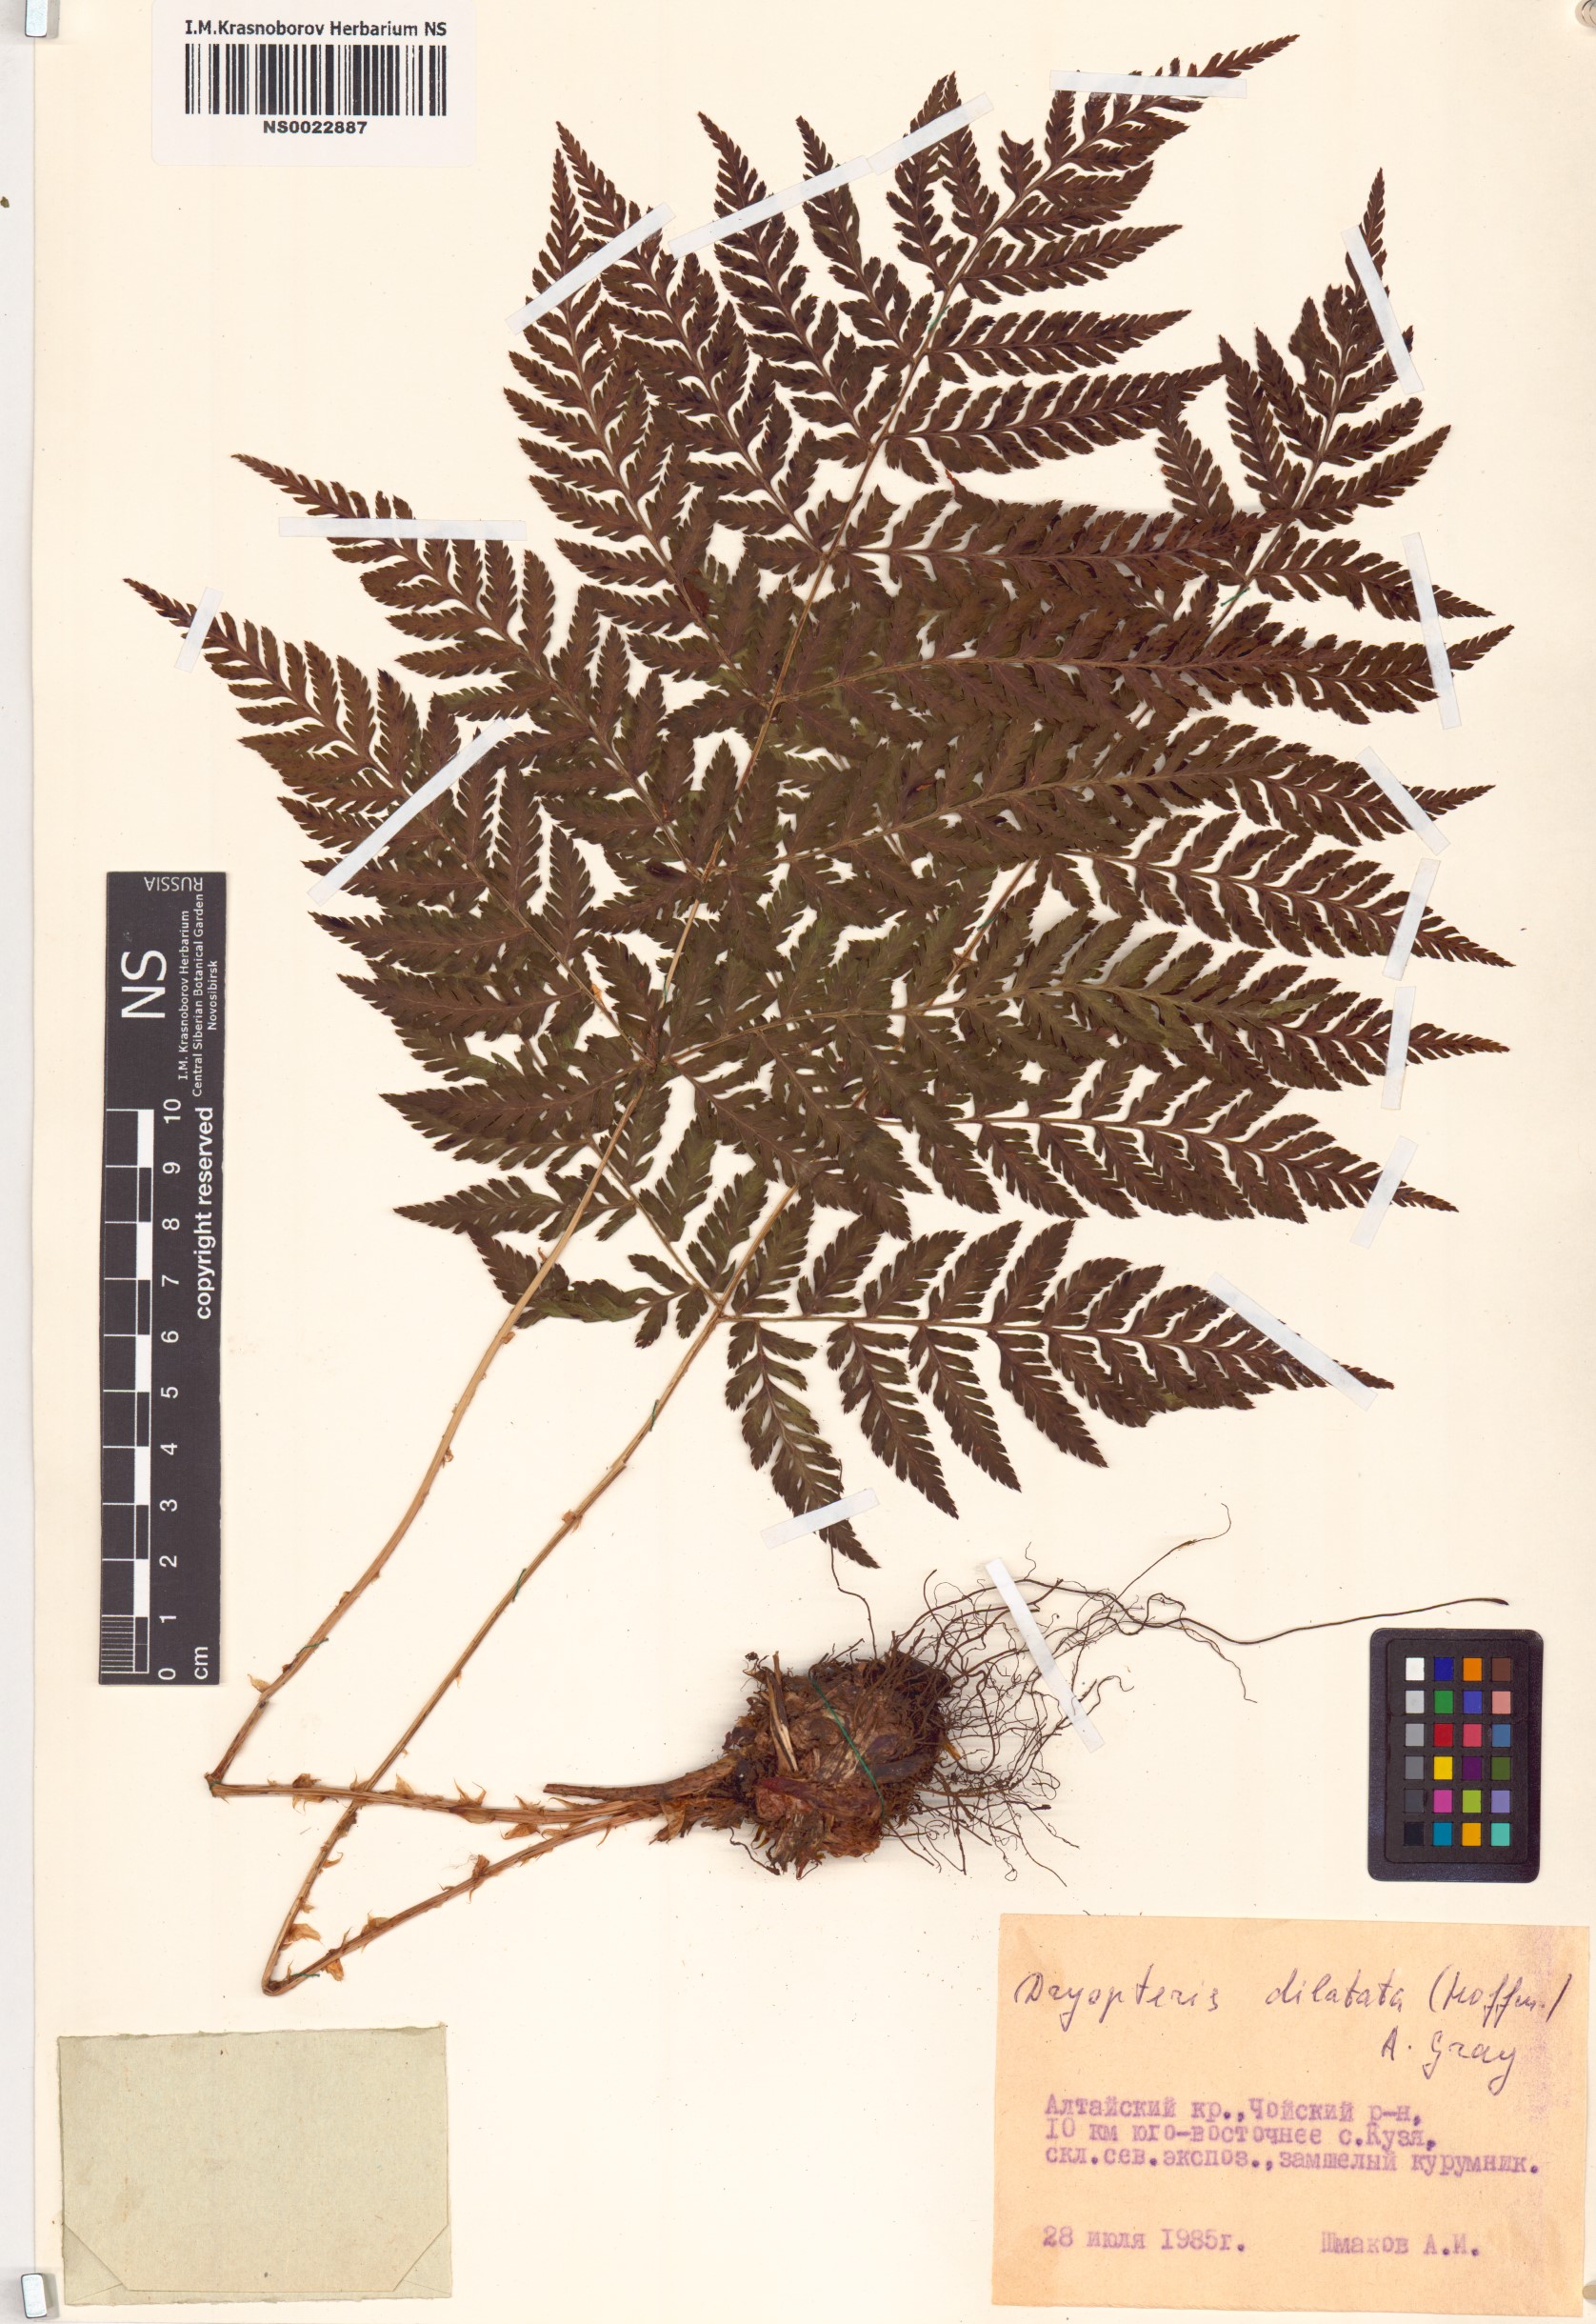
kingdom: Plantae
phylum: Tracheophyta
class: Polypodiopsida
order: Polypodiales
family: Dryopteridaceae
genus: Dryopteris
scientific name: Dryopteris dilatata
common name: Broad buckler-fern
